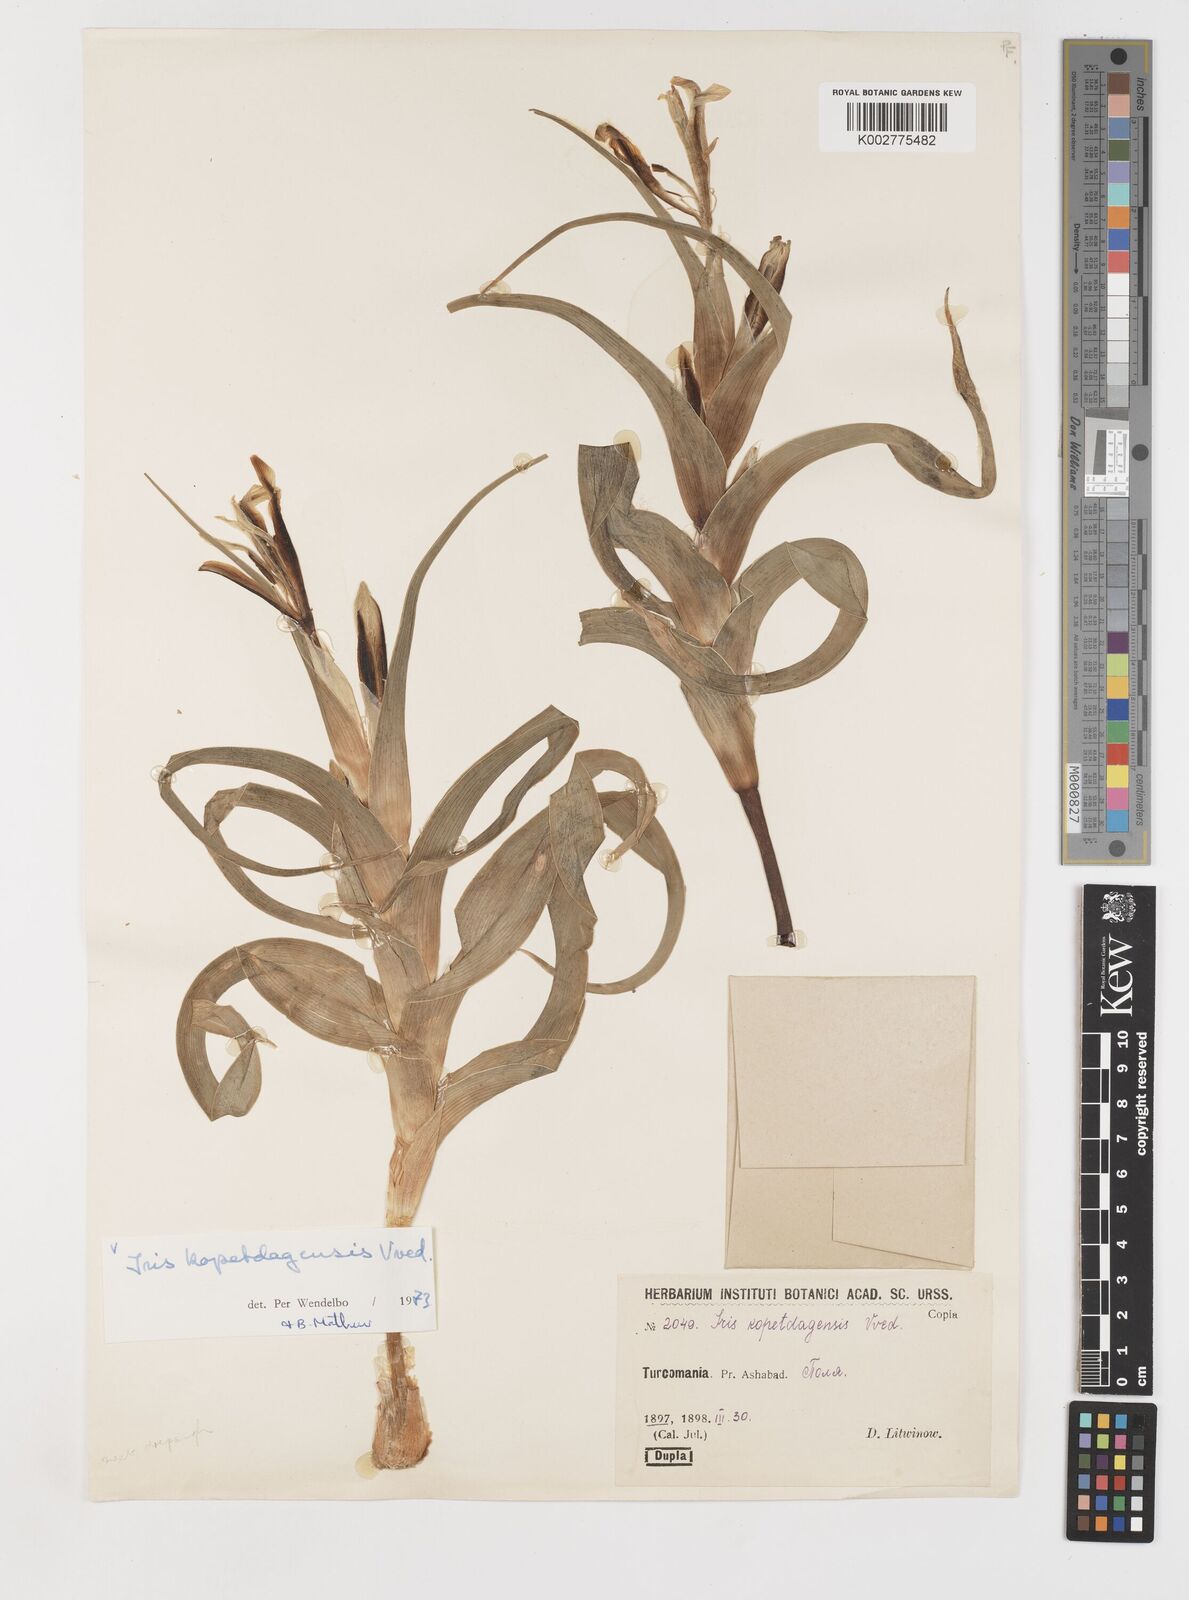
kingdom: Plantae
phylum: Tracheophyta
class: Liliopsida
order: Asparagales
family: Iridaceae
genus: Iris
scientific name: Iris kopetdagensis
